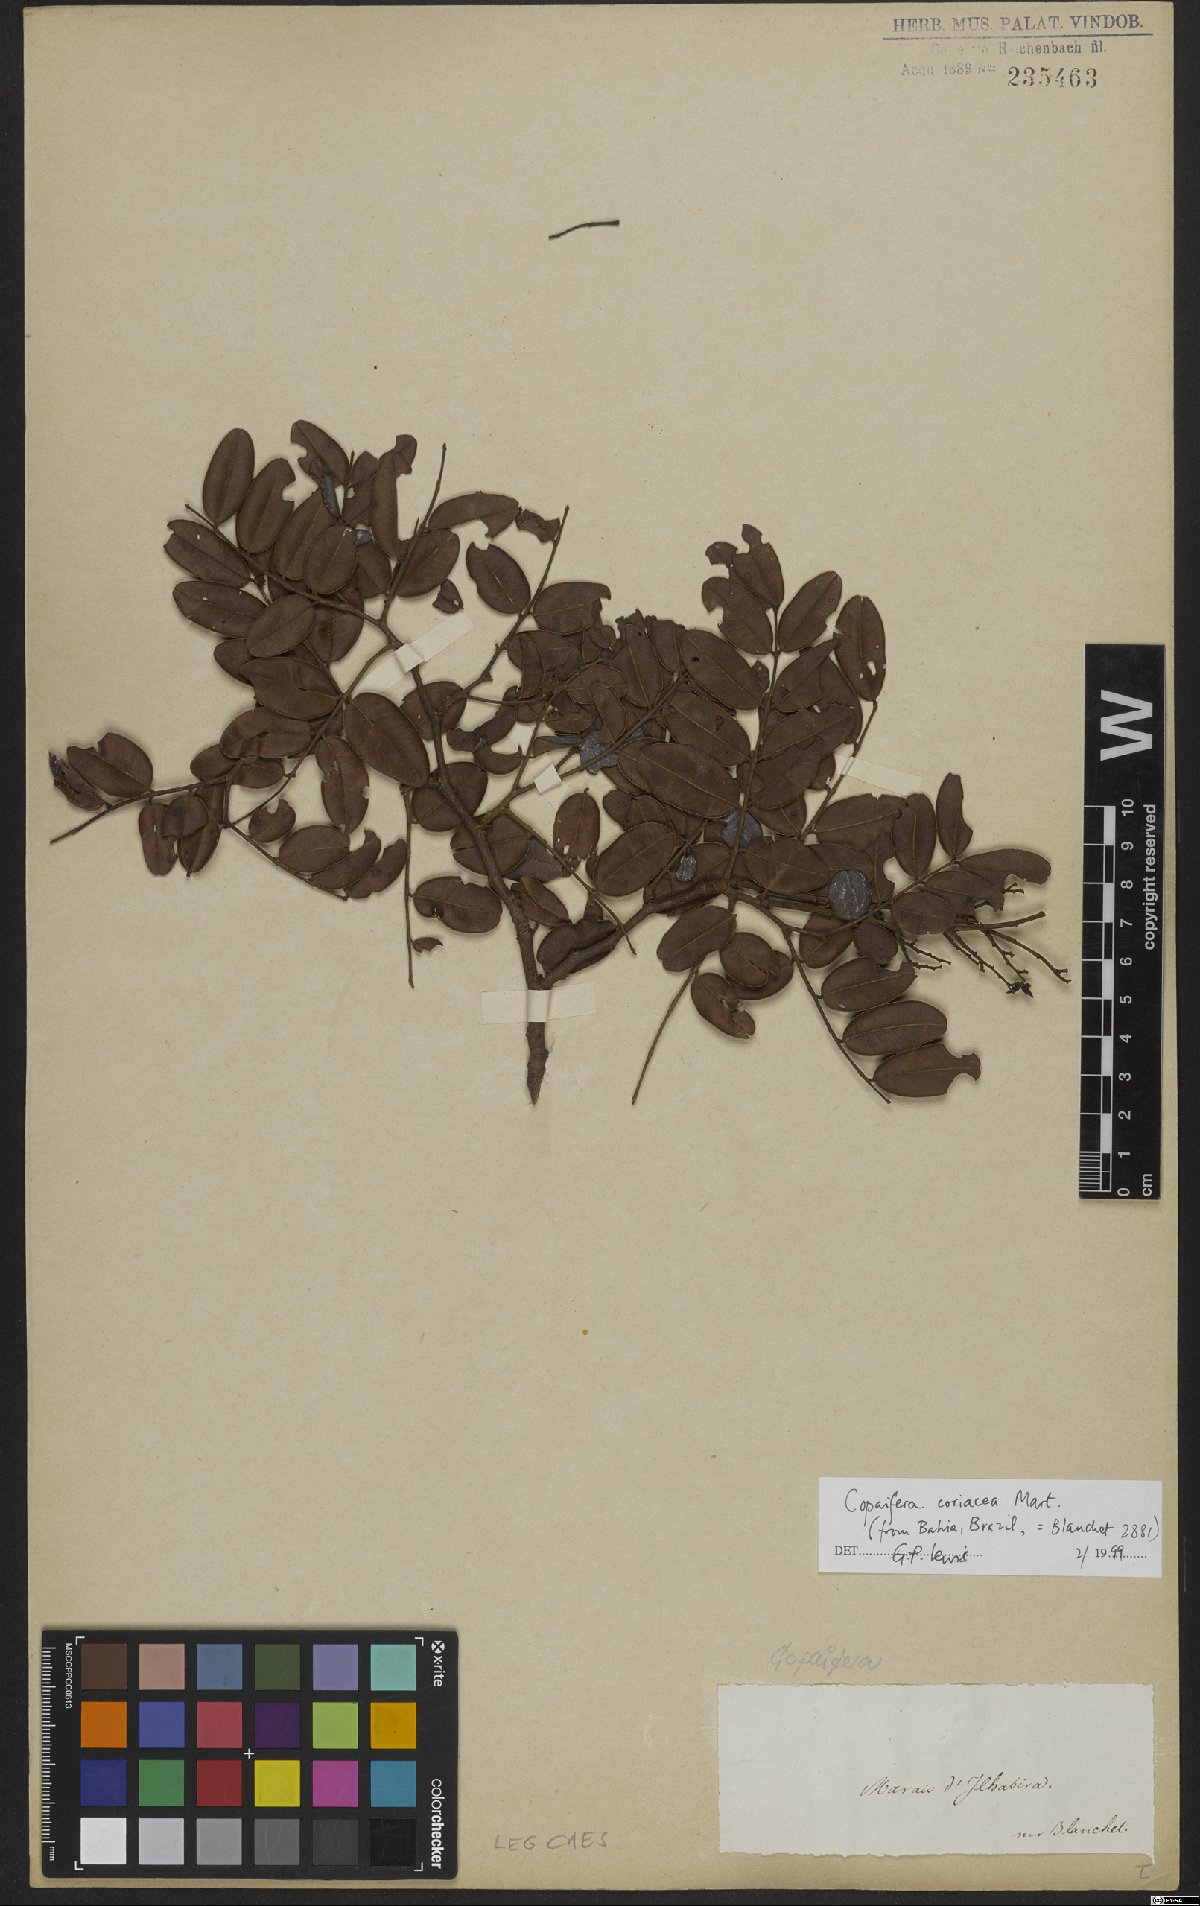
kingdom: Plantae
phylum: Tracheophyta
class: Magnoliopsida
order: Fabales
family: Fabaceae
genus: Copaifera
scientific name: Copaifera coriacea
